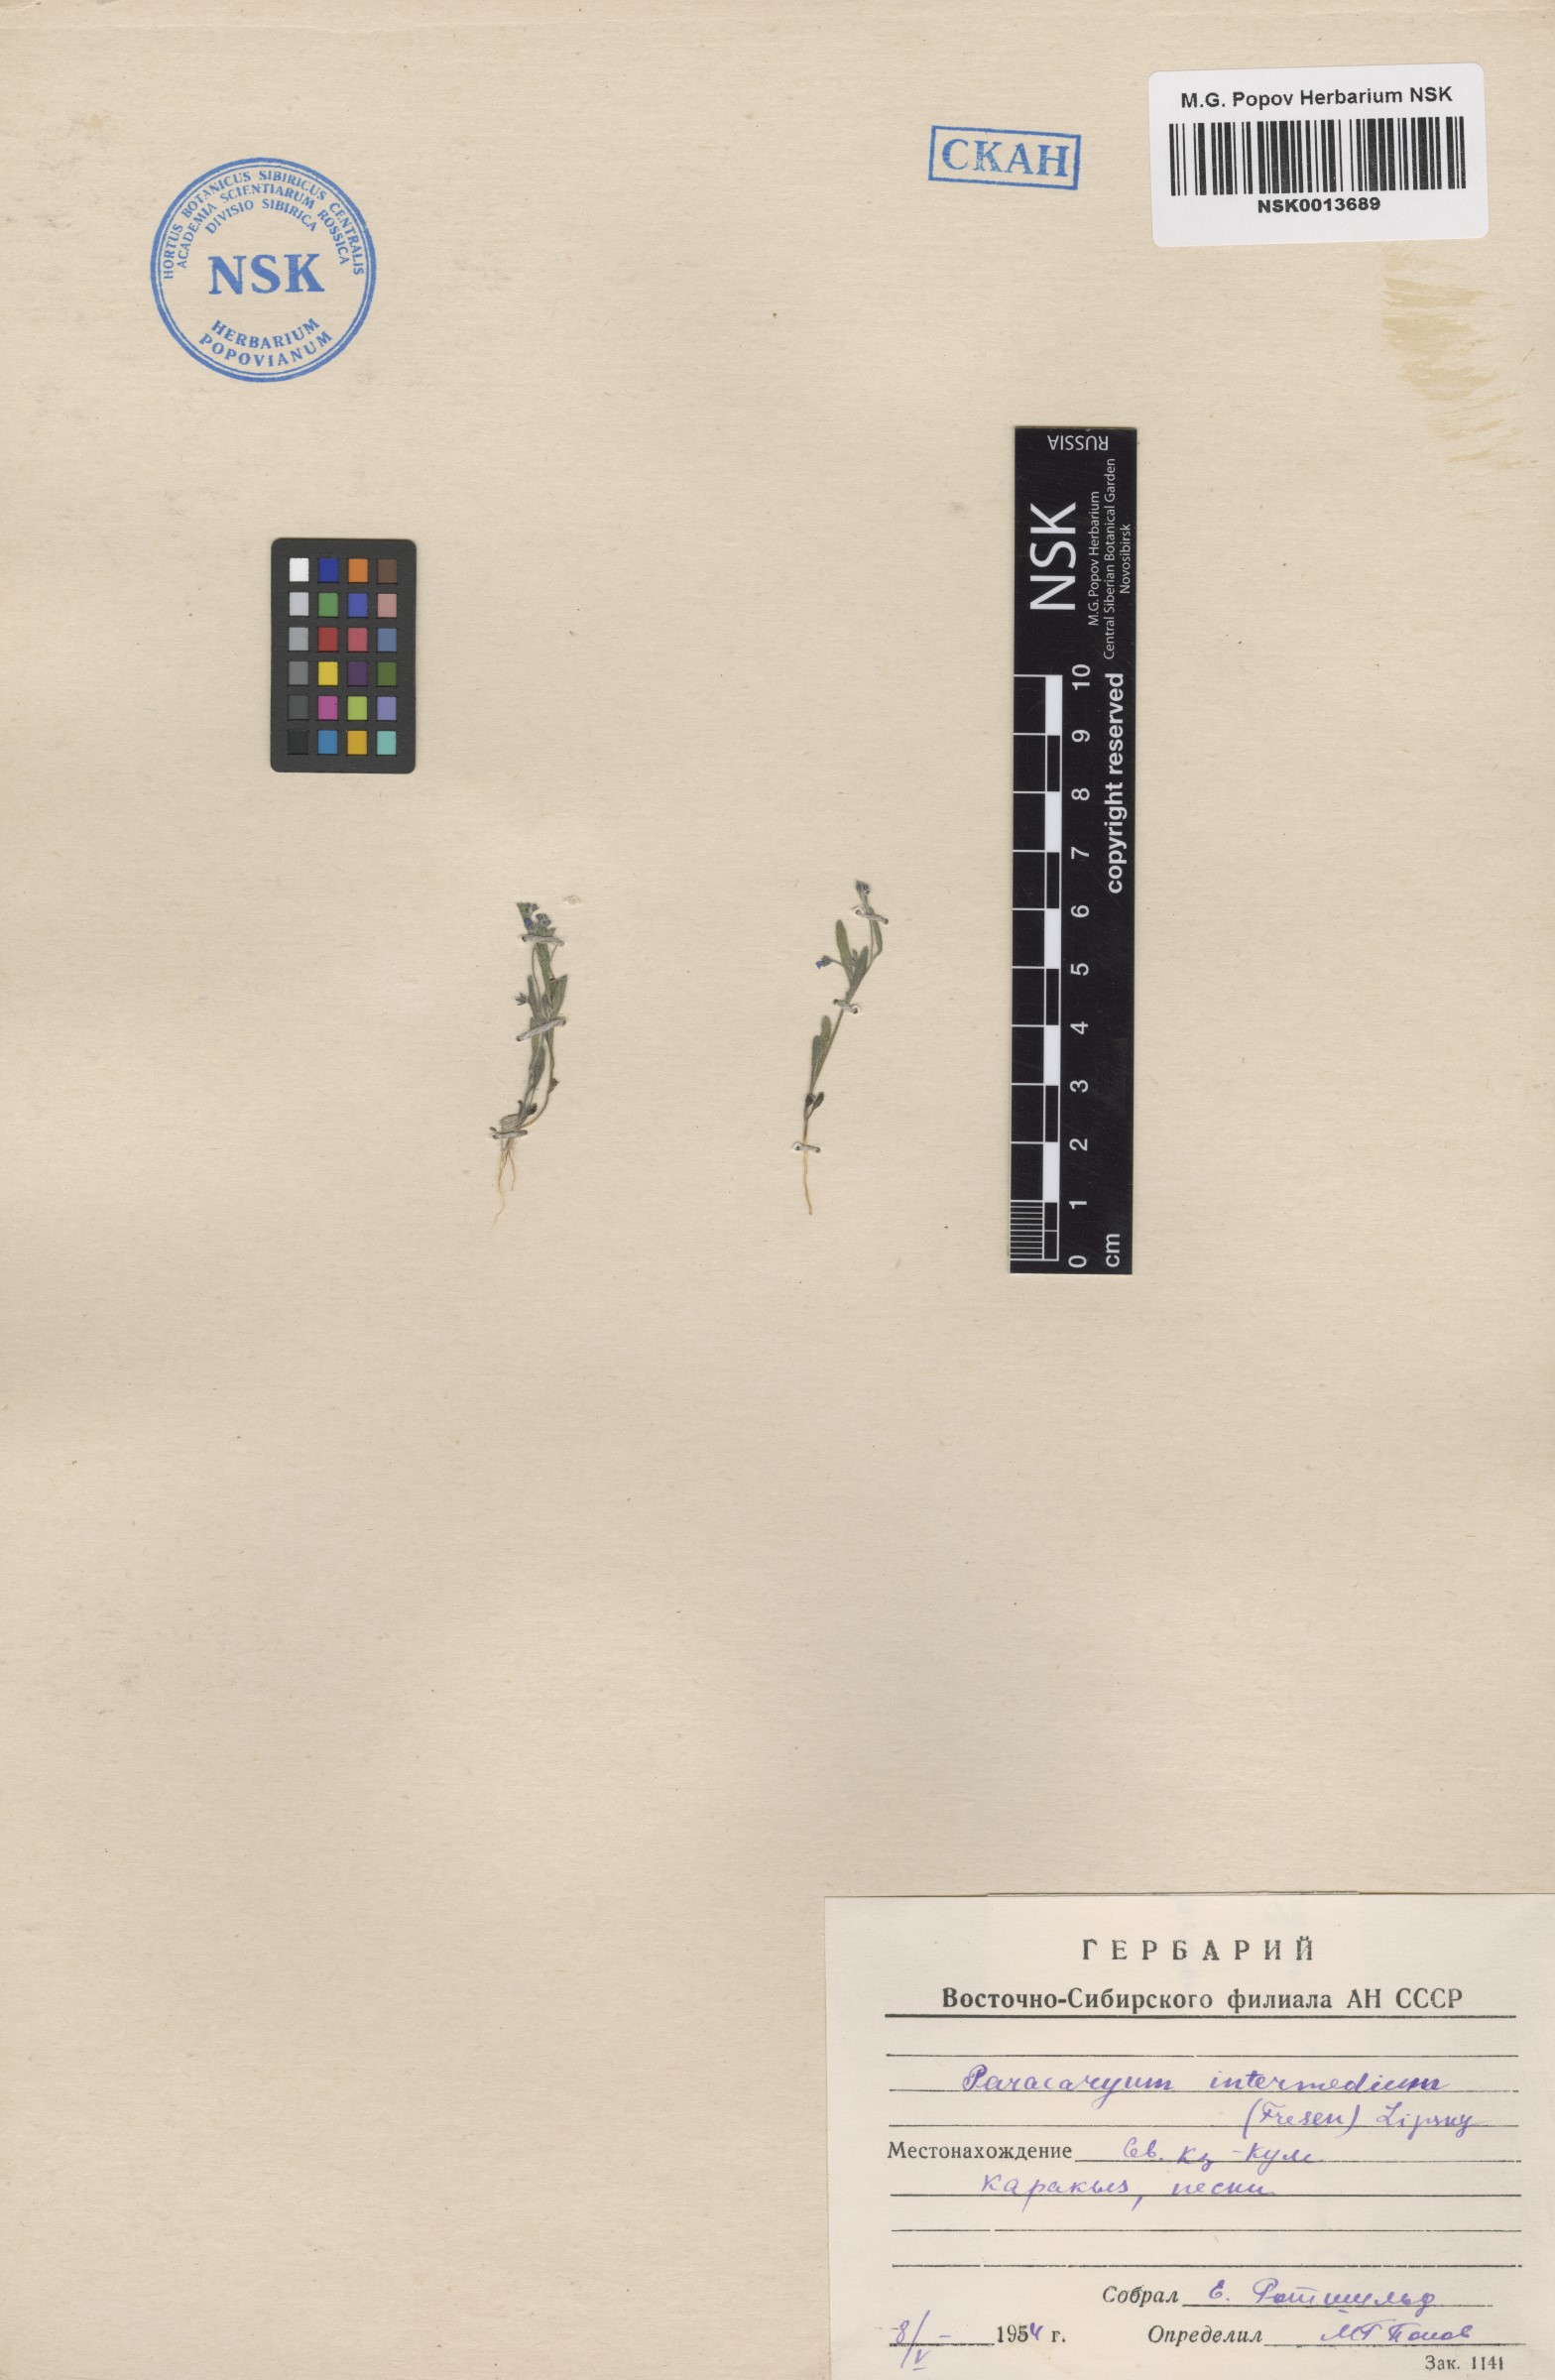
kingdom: Plantae
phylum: Tracheophyta
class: Magnoliopsida
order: Boraginales
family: Boraginaceae
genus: Microparacaryum
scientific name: Microparacaryum intermedium
